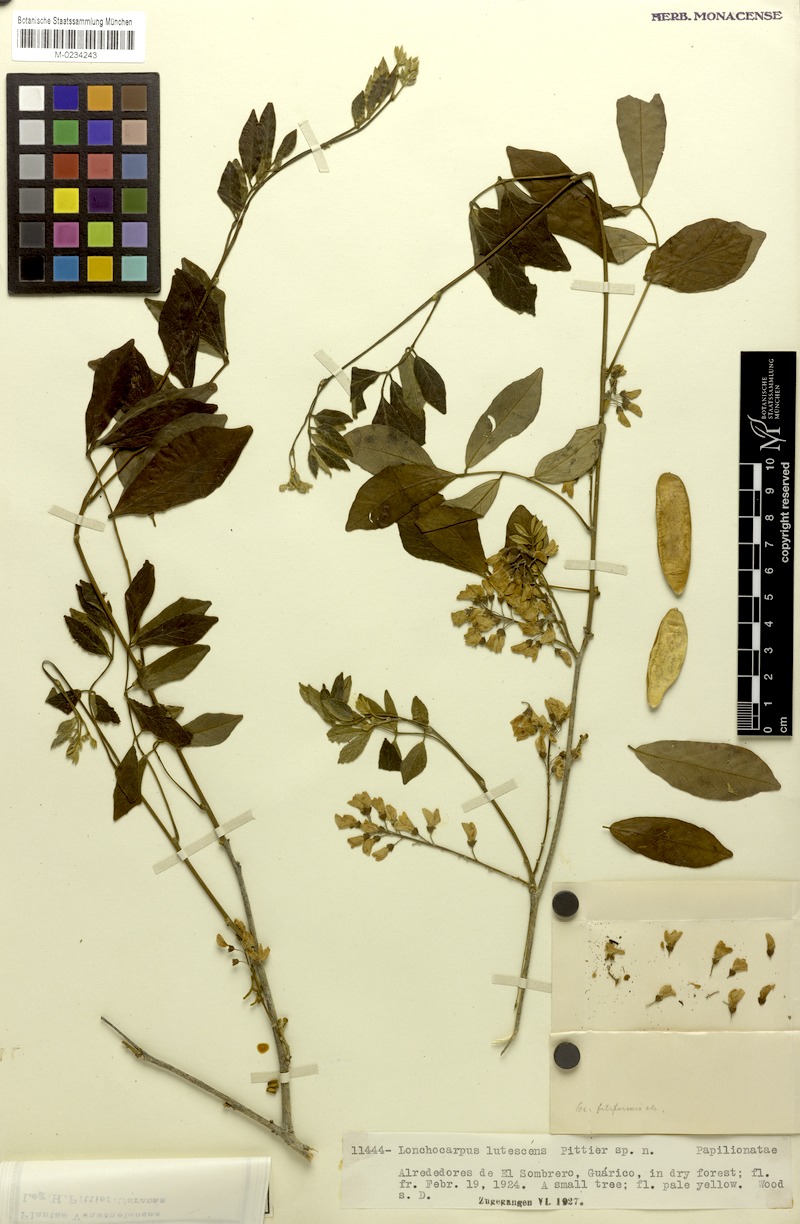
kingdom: Plantae
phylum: Tracheophyta
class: Magnoliopsida
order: Fabales
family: Fabaceae
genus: Muellera
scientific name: Muellera lutescens
